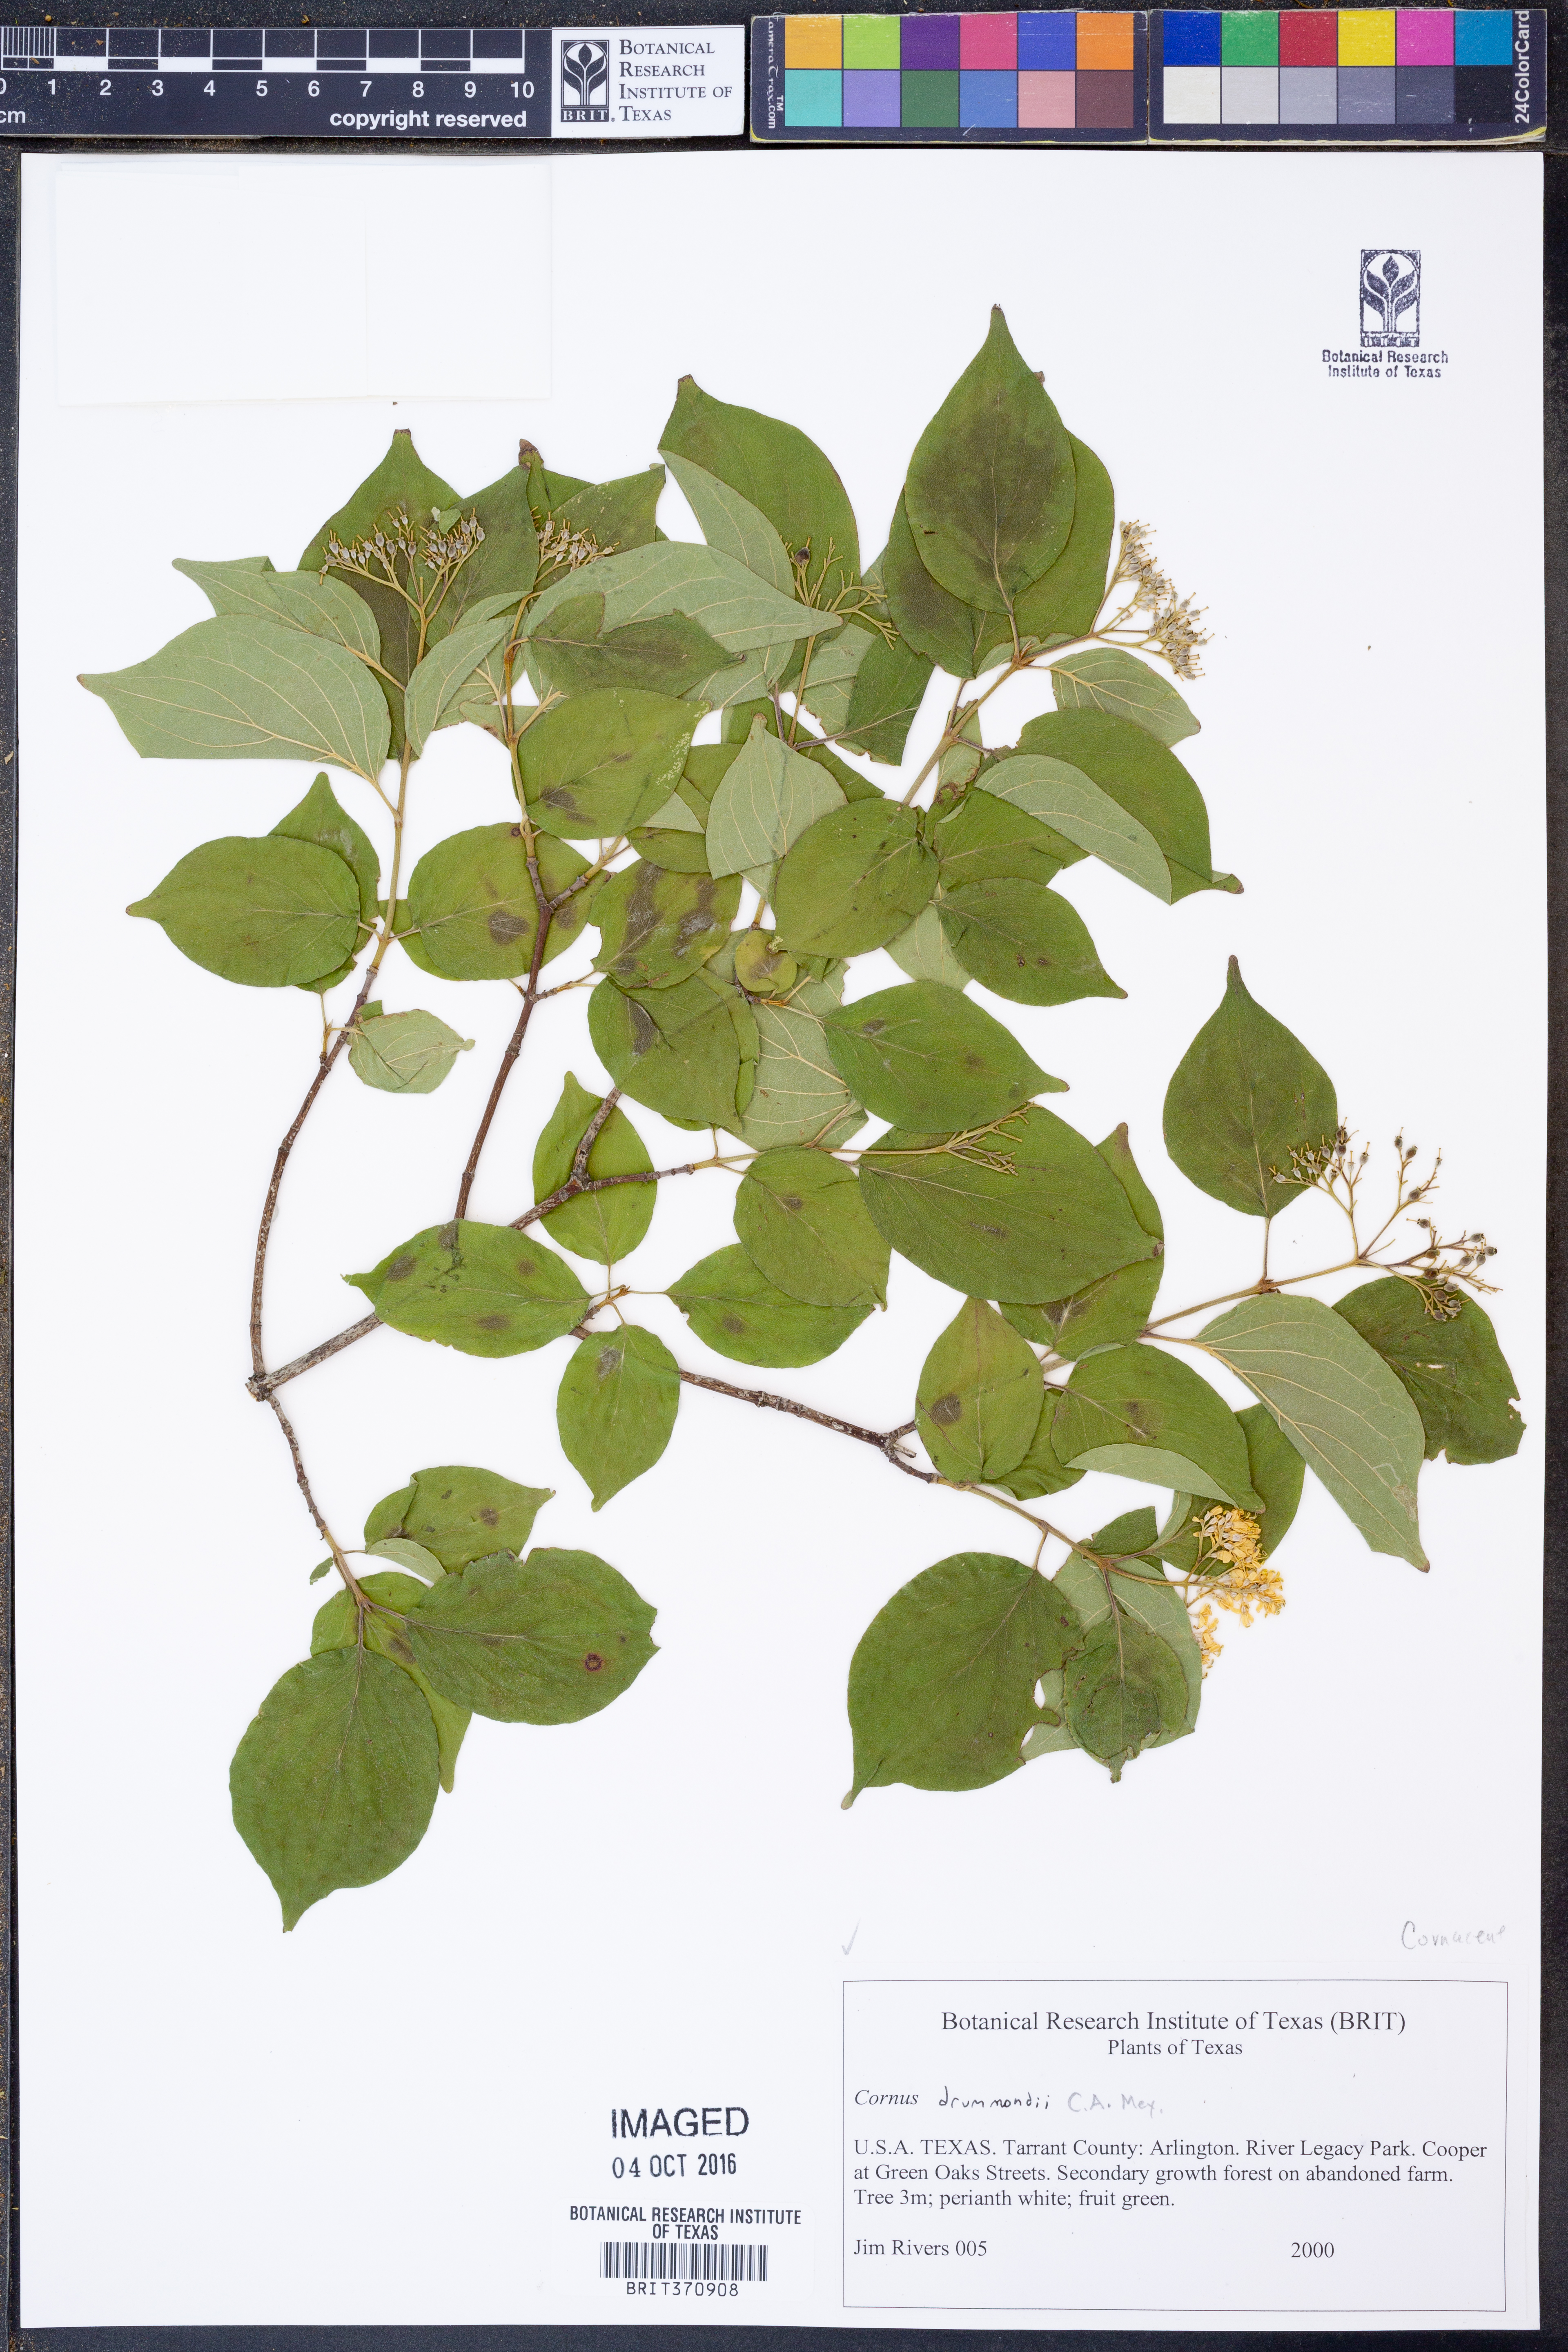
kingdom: Plantae
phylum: Tracheophyta
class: Magnoliopsida
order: Cornales
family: Cornaceae
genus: Cornus
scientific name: Cornus drummondii
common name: Rough-leaf dogwood
